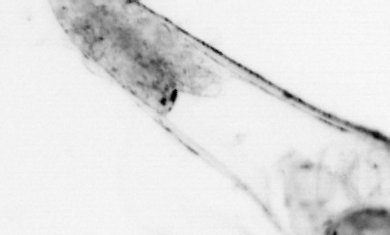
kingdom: Animalia
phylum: Chordata
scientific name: Chordata
